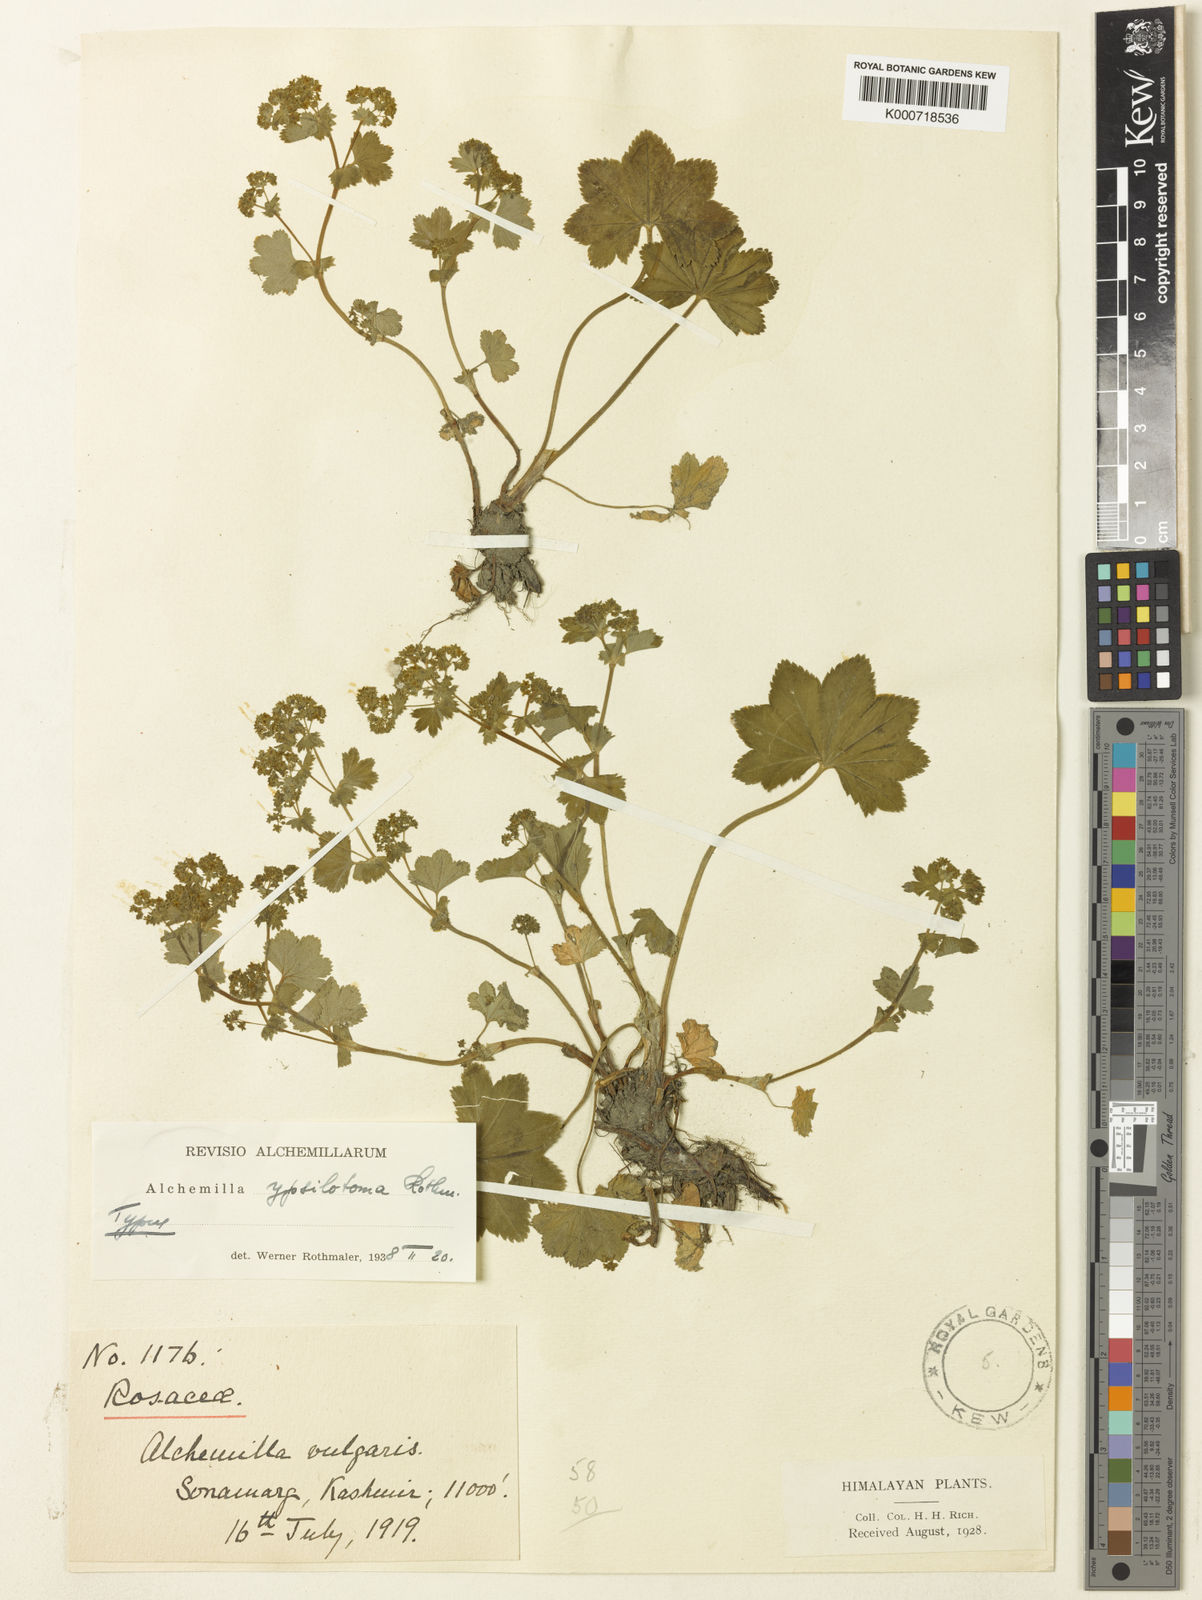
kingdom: Plantae
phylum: Tracheophyta
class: Magnoliopsida
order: Rosales
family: Rosaceae
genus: Alchemilla
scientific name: Alchemilla ypsilotoma
